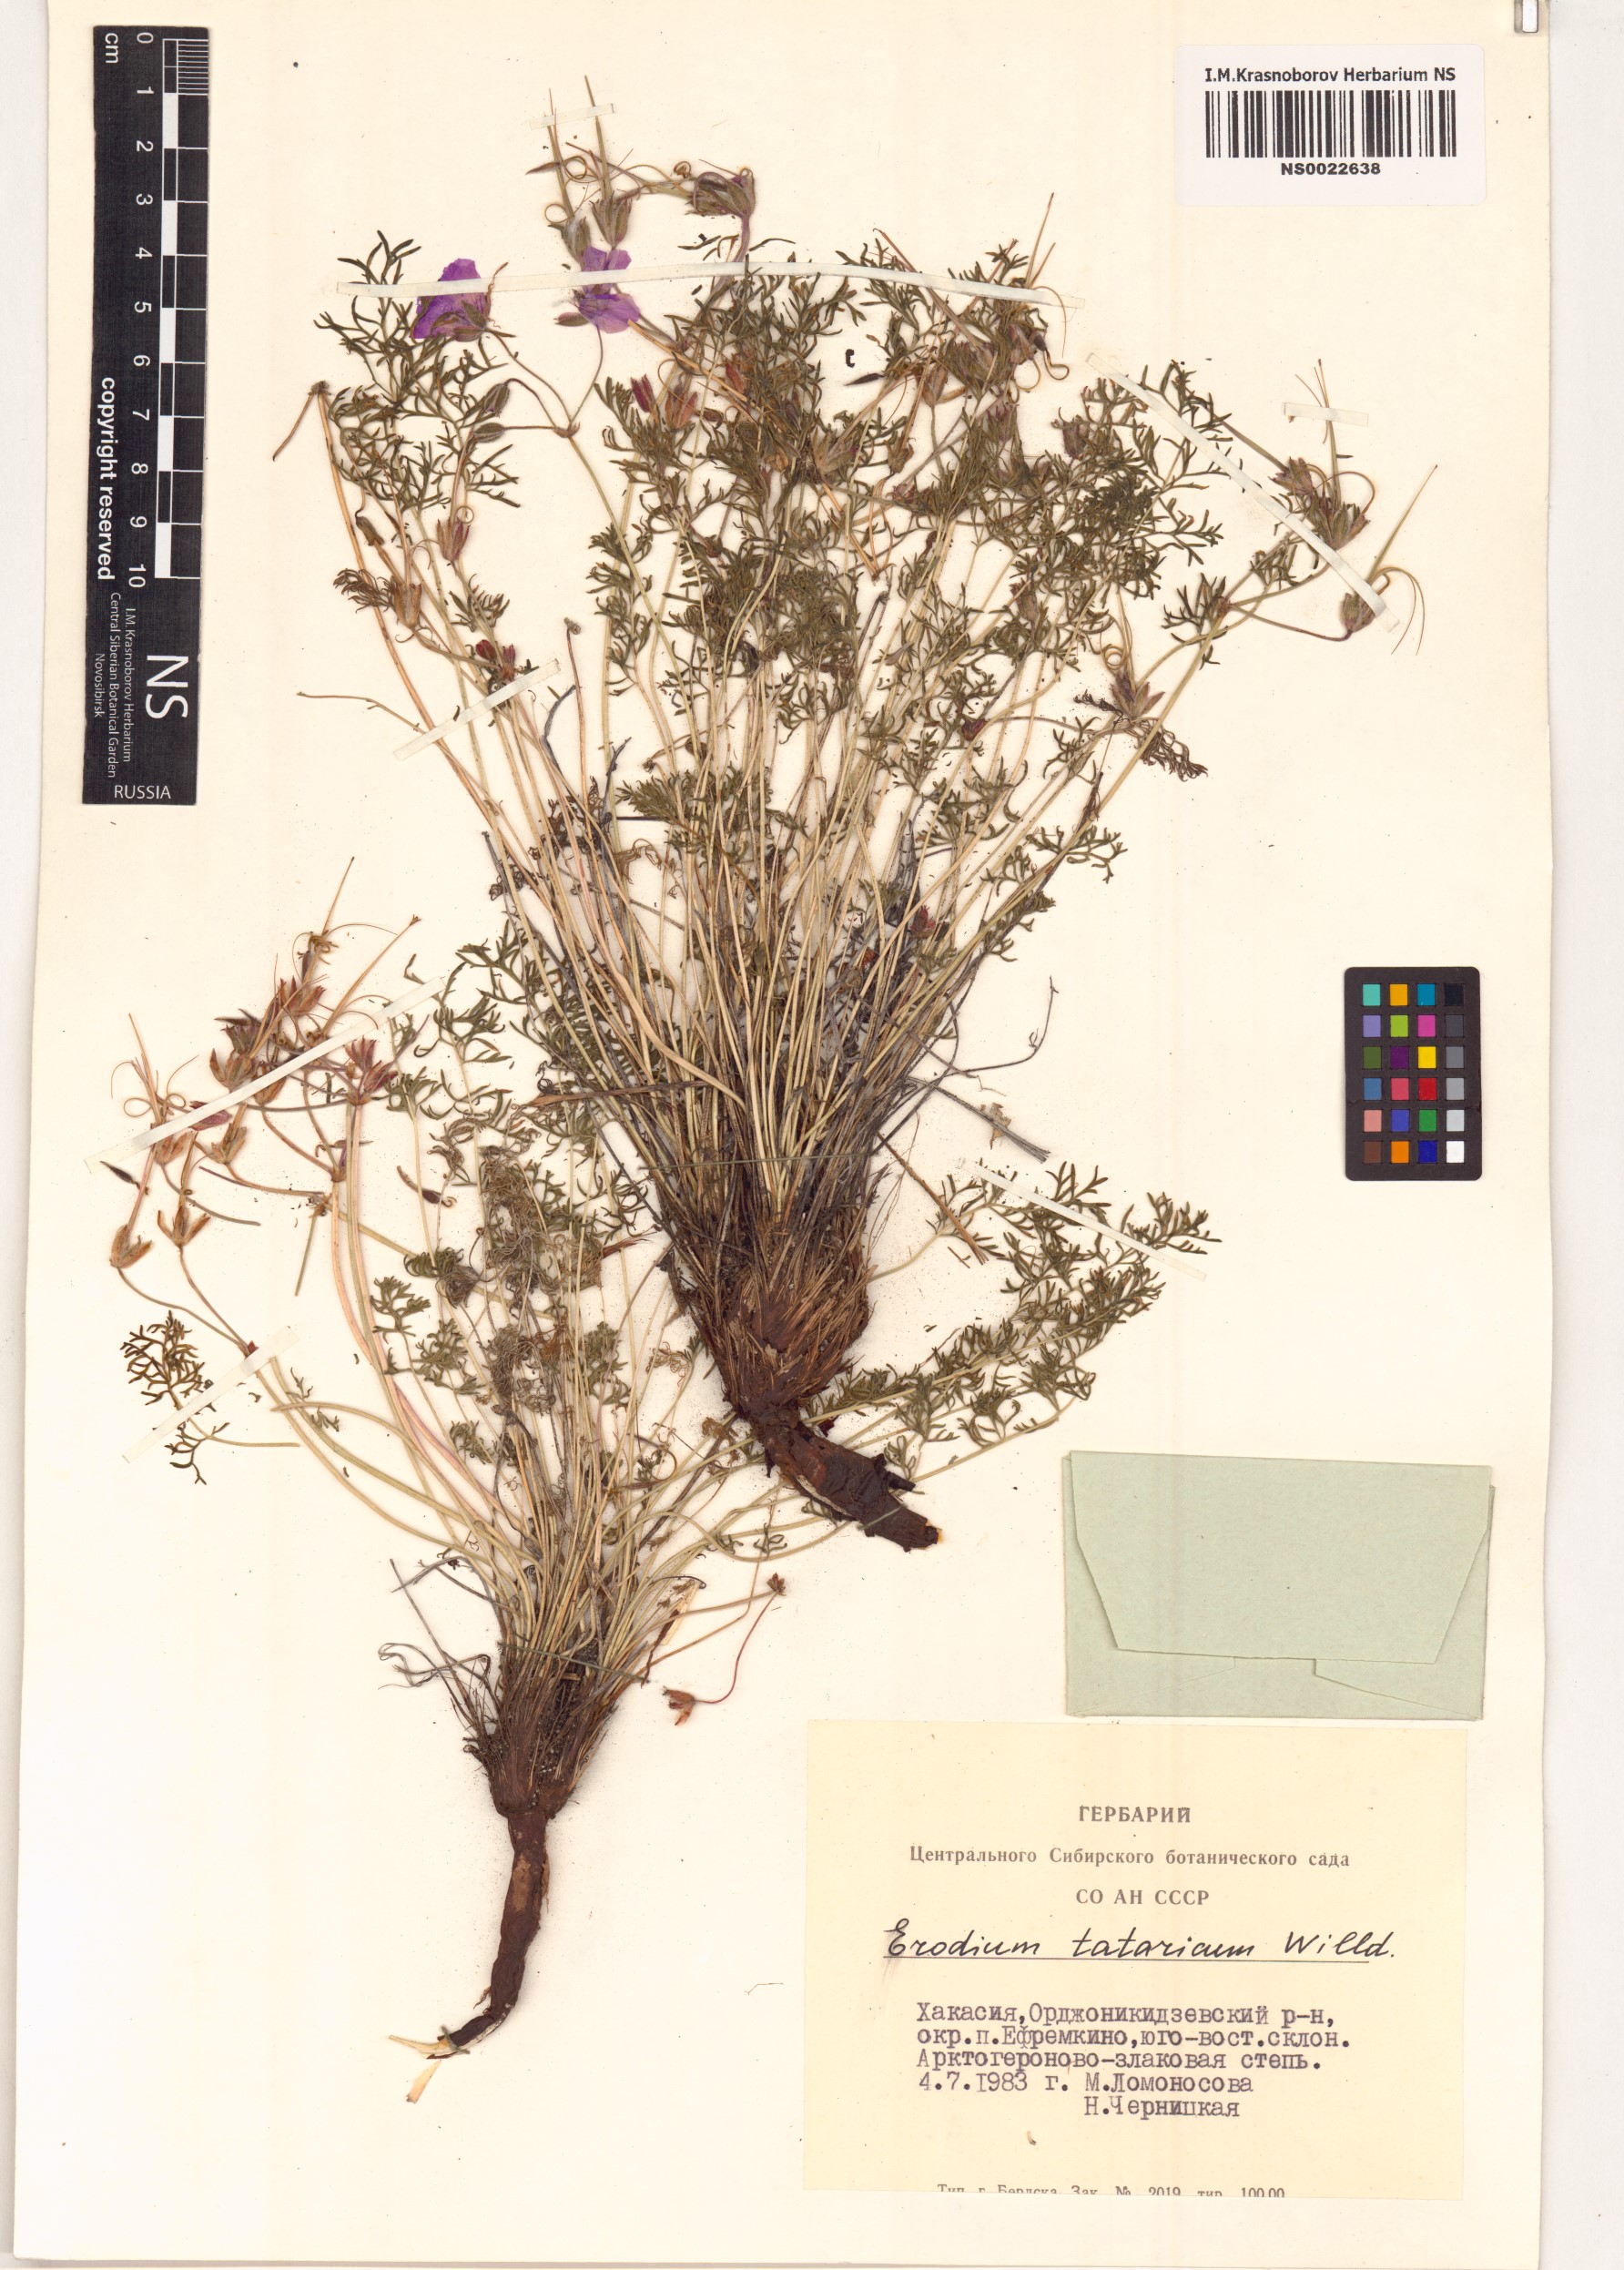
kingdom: Plantae
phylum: Tracheophyta
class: Magnoliopsida
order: Geraniales
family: Geraniaceae
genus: Erodium
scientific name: Erodium tataricum
